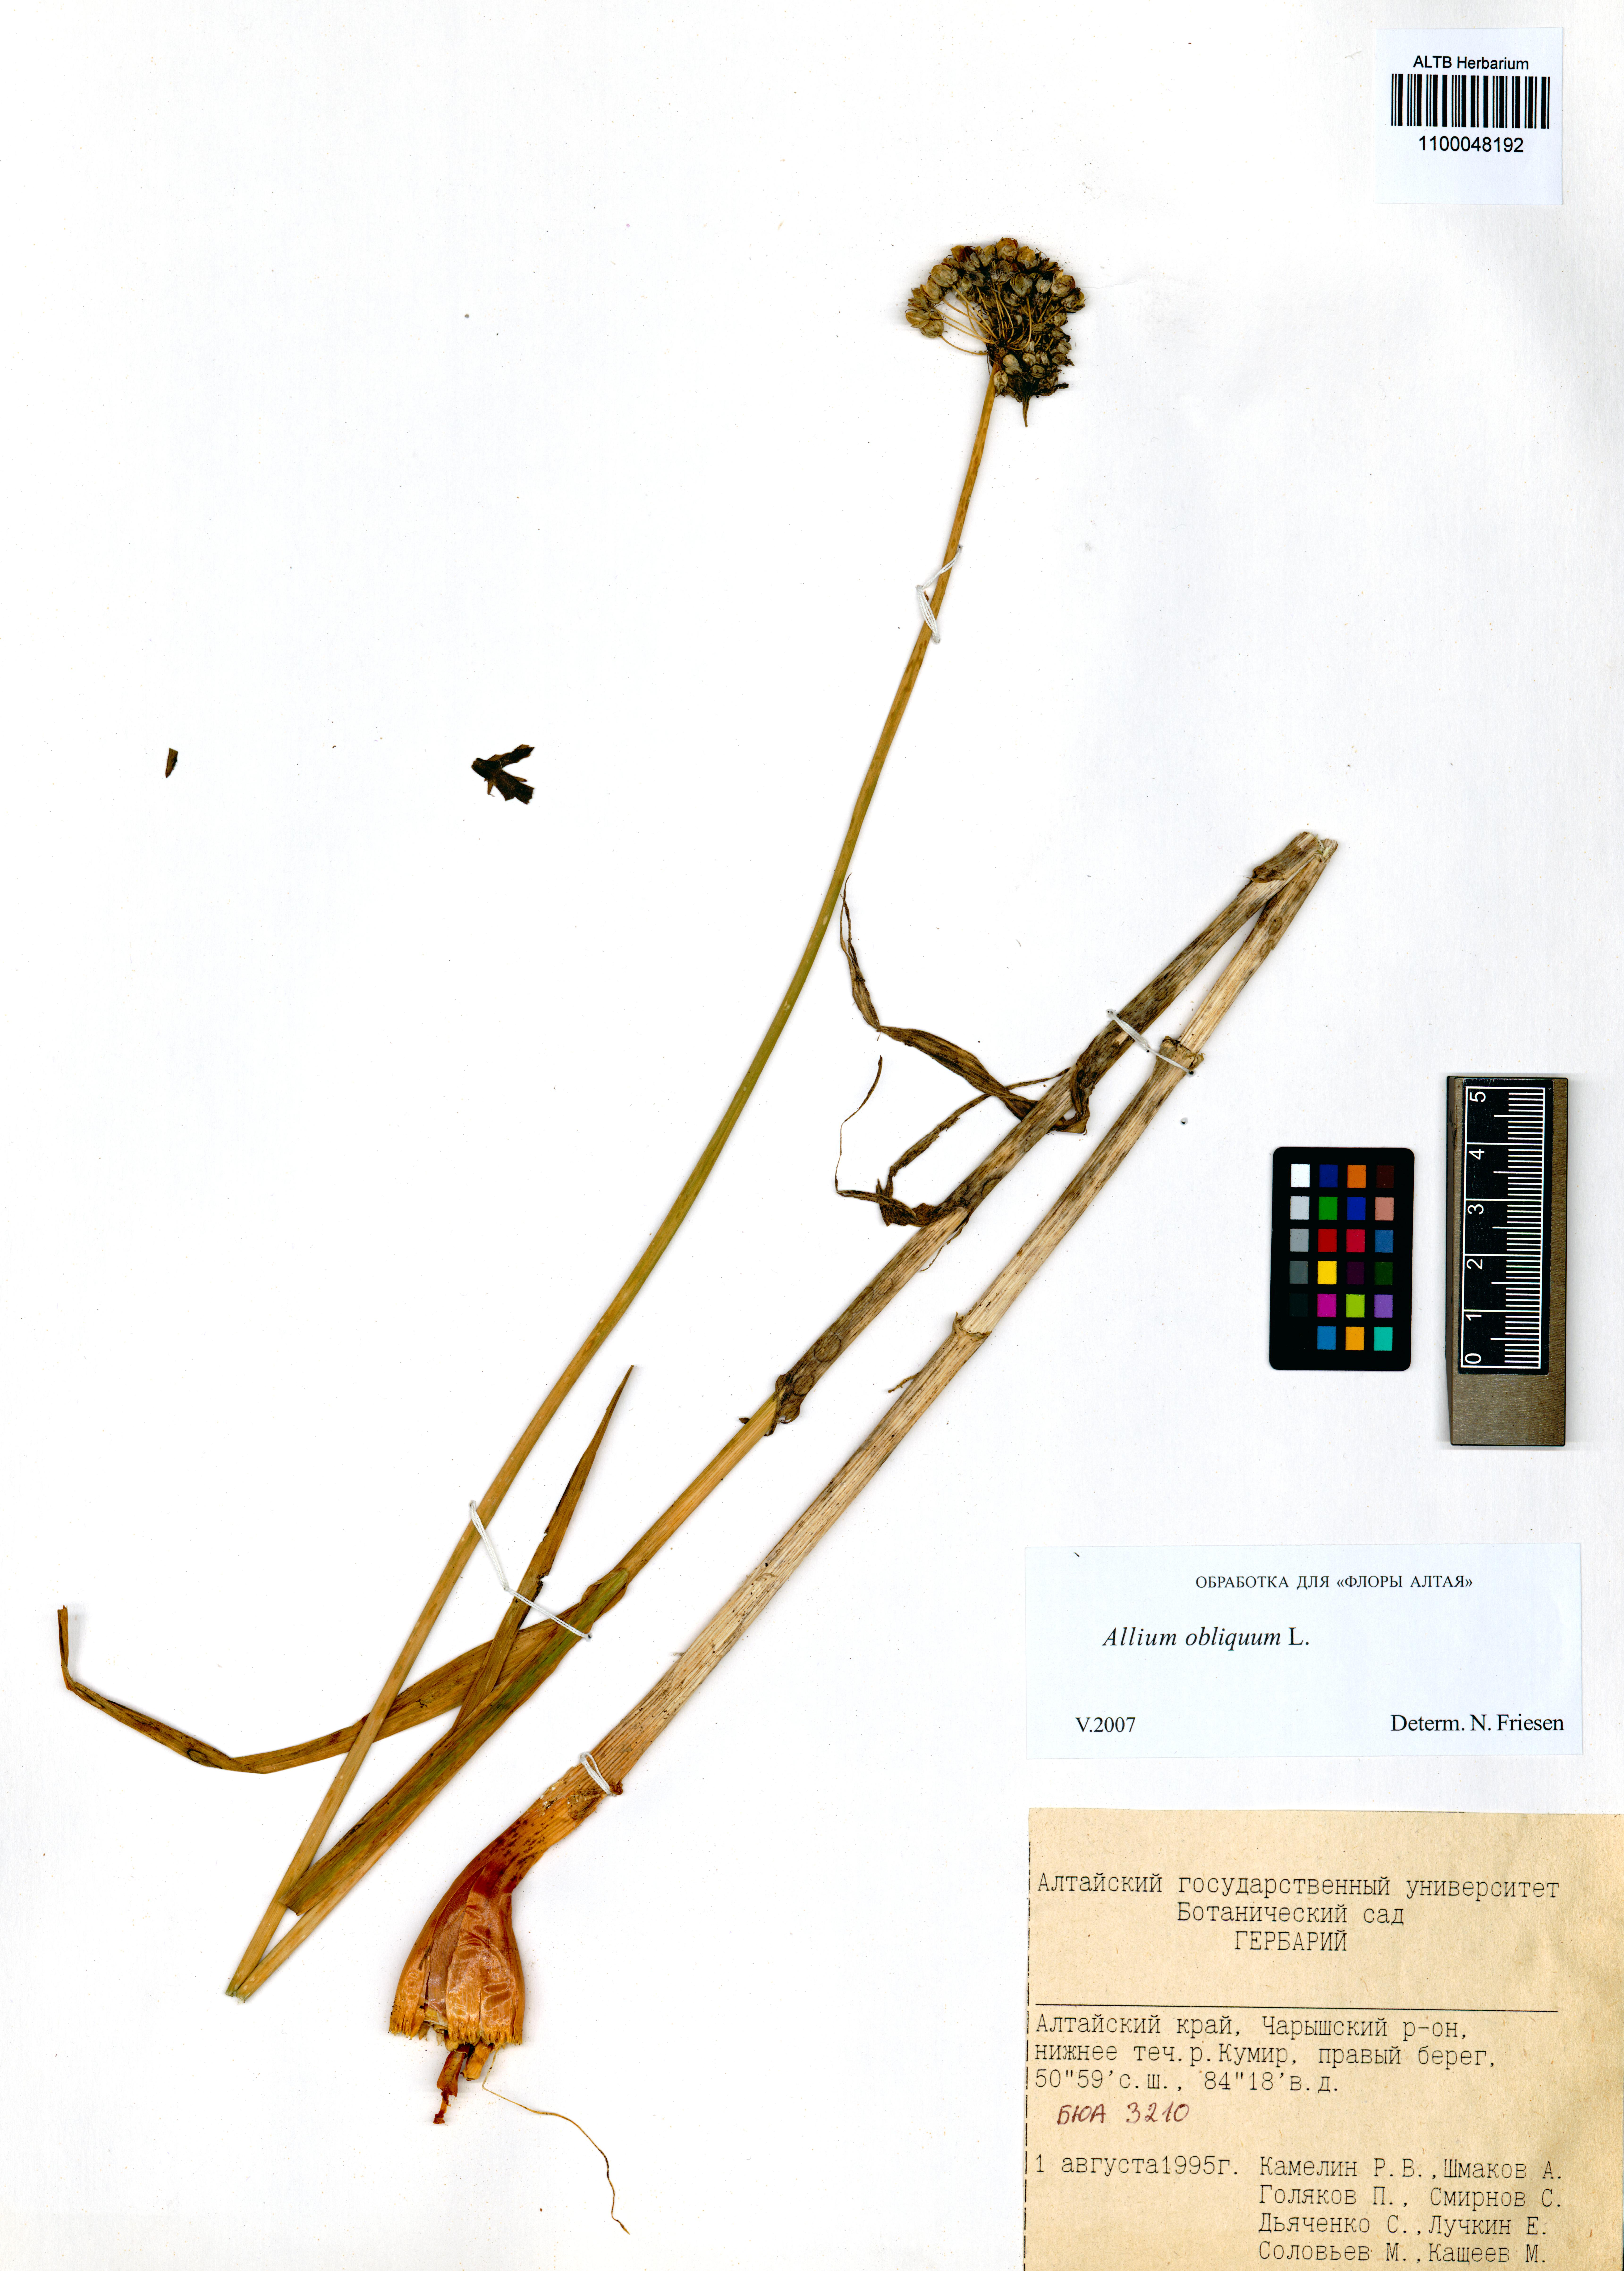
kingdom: Plantae
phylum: Tracheophyta
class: Liliopsida
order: Asparagales
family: Amaryllidaceae
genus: Allium
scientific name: Allium obliquum
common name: Oblique onion
